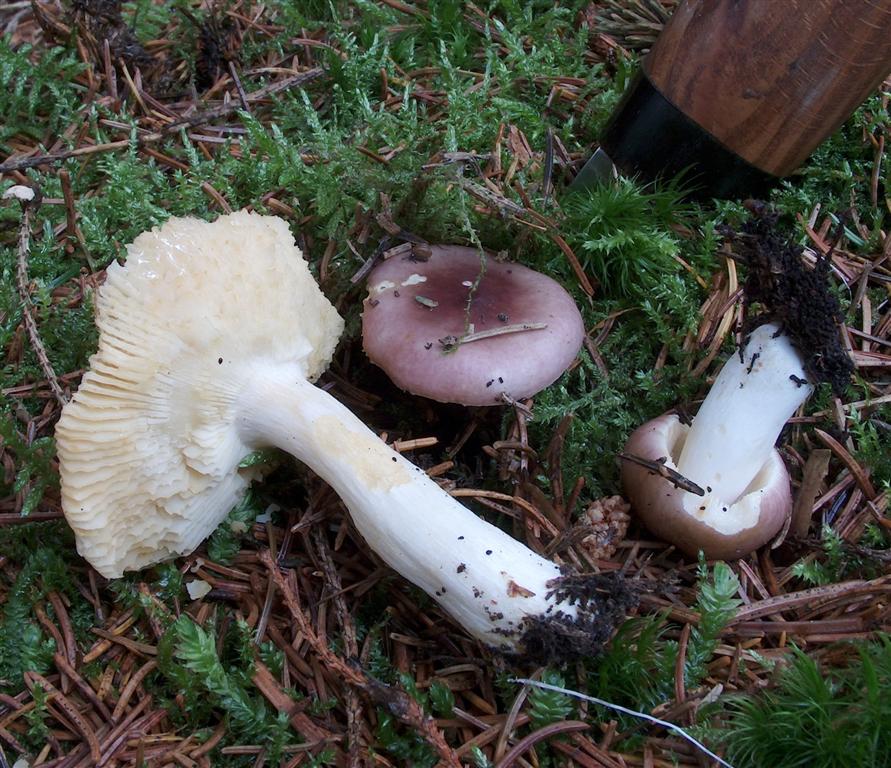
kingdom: Fungi
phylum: Basidiomycota
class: Agaricomycetes
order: Russulales
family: Russulaceae
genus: Russula
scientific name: Russula puellaris
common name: gulstokket skørhat
